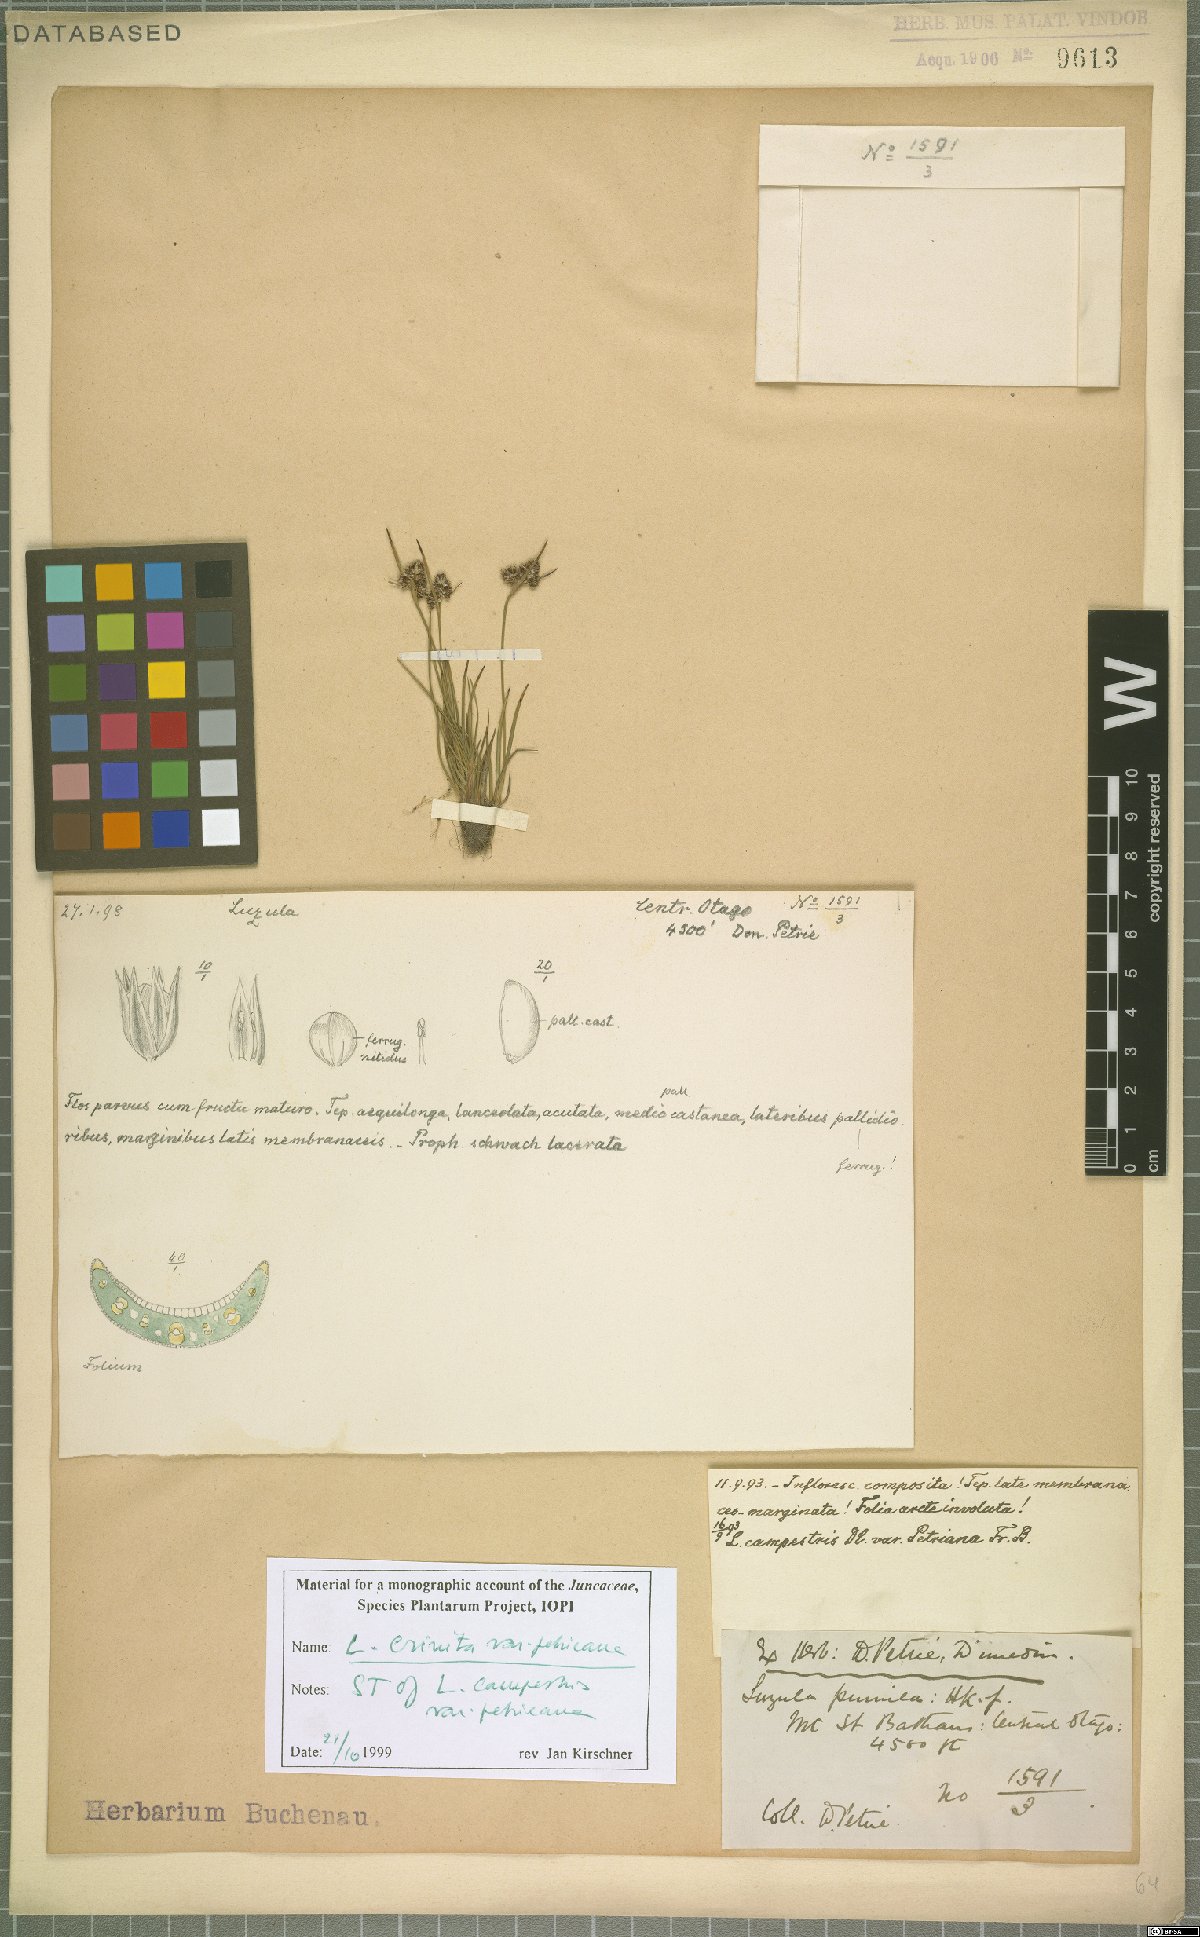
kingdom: Plantae
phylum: Tracheophyta
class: Liliopsida
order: Poales
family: Juncaceae
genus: Luzula
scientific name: Luzula crinita
